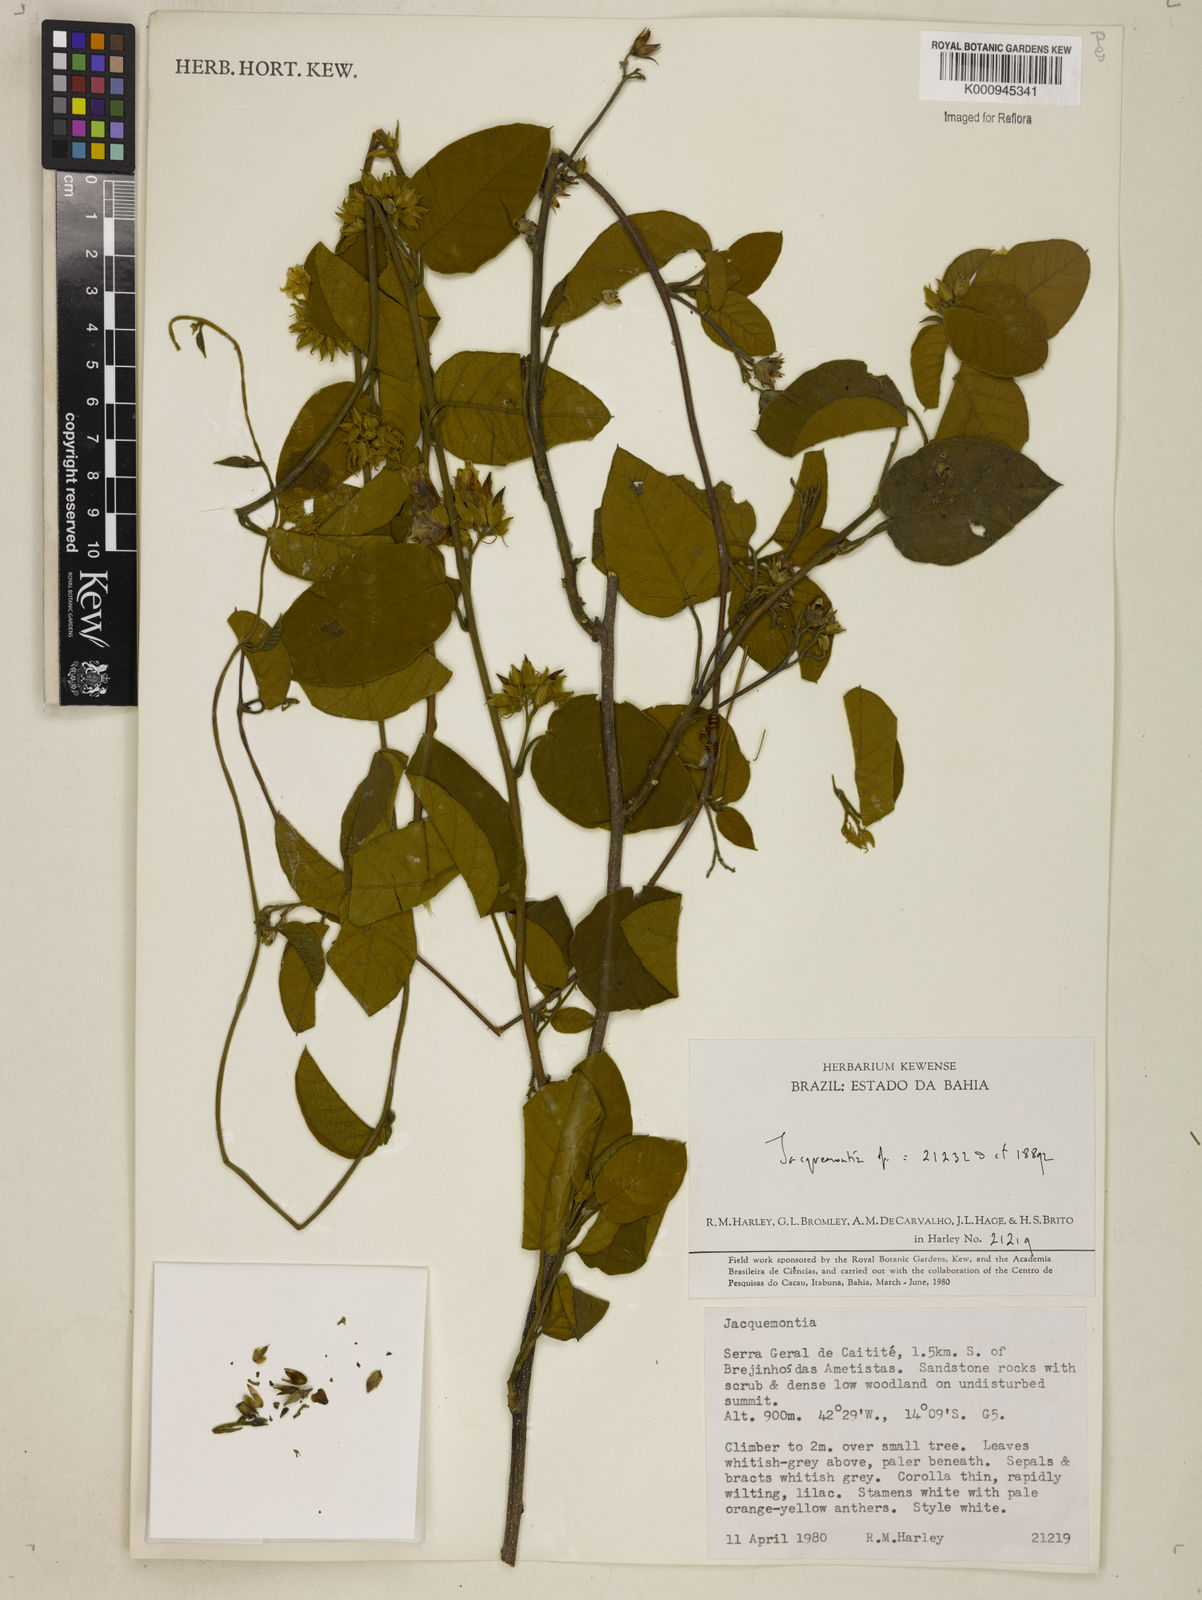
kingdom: Plantae
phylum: Tracheophyta
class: Magnoliopsida
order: Solanales
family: Convolvulaceae
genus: Jacquemontia
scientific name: Jacquemontia
